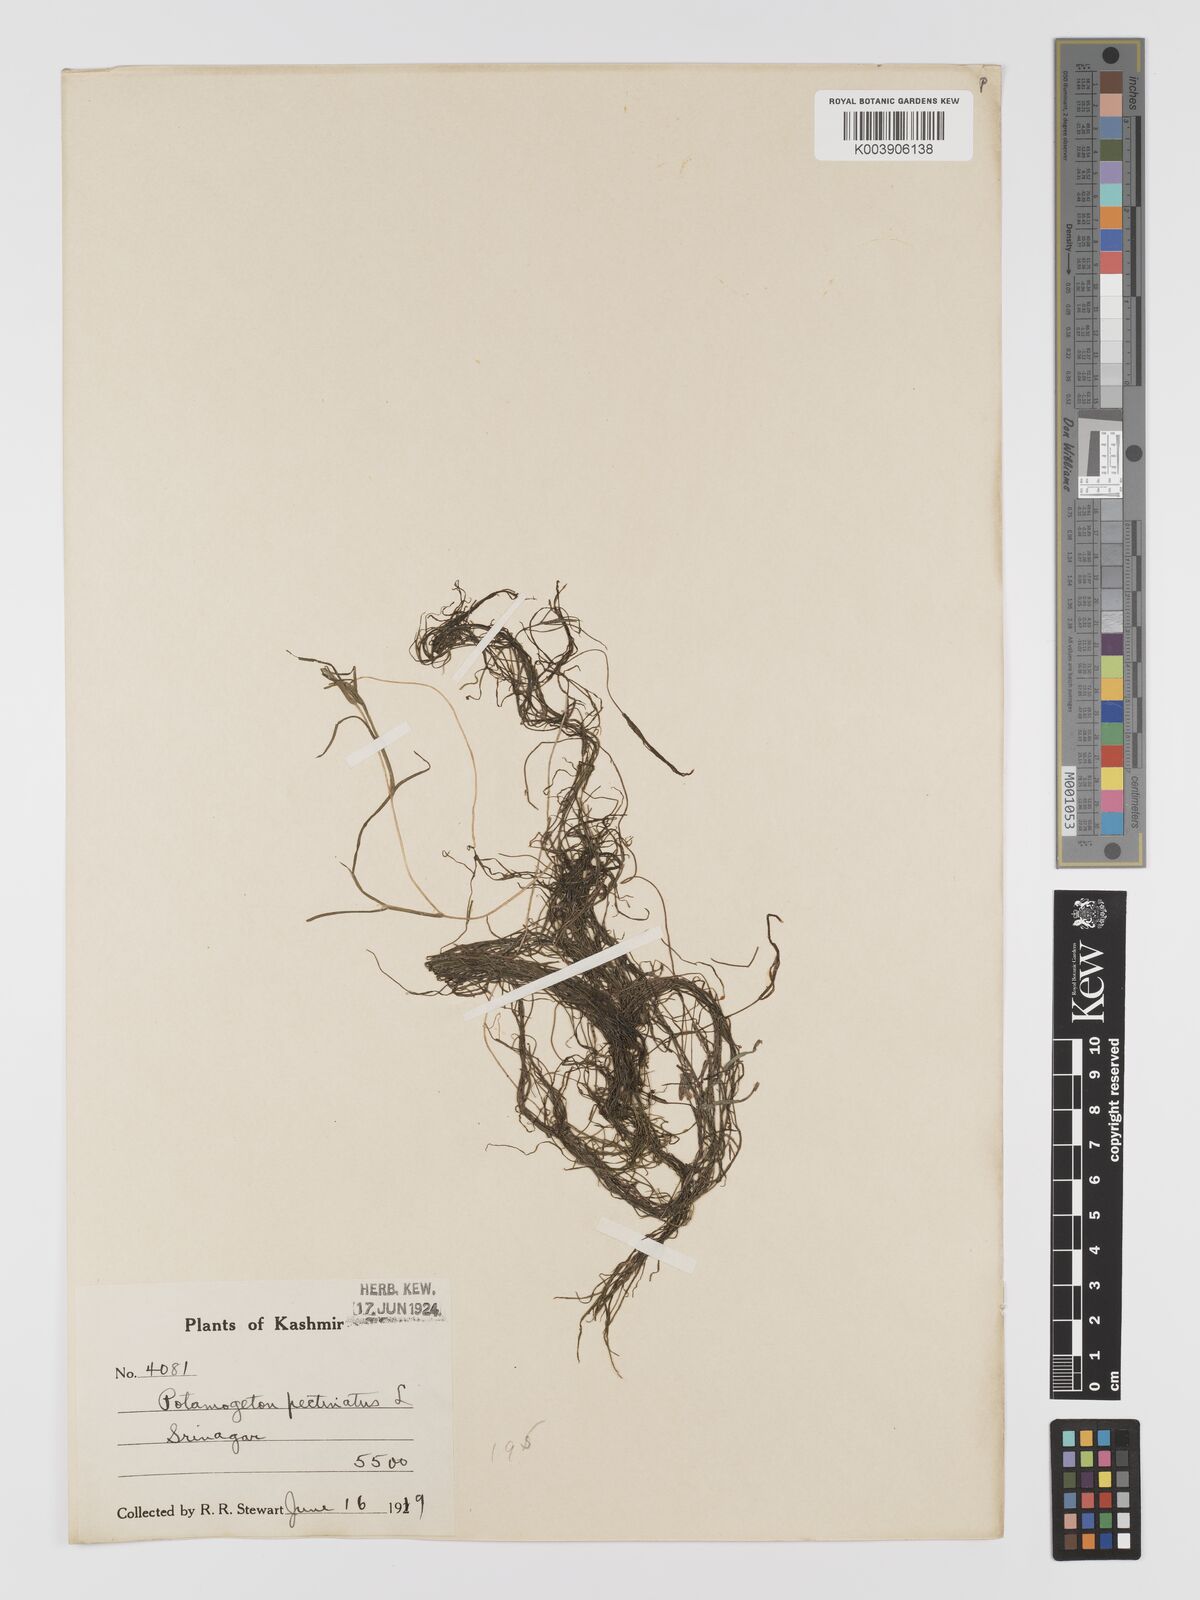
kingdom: Plantae
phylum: Tracheophyta
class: Liliopsida
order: Alismatales
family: Potamogetonaceae
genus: Stuckenia
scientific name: Stuckenia pectinata
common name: Sago pondweed
